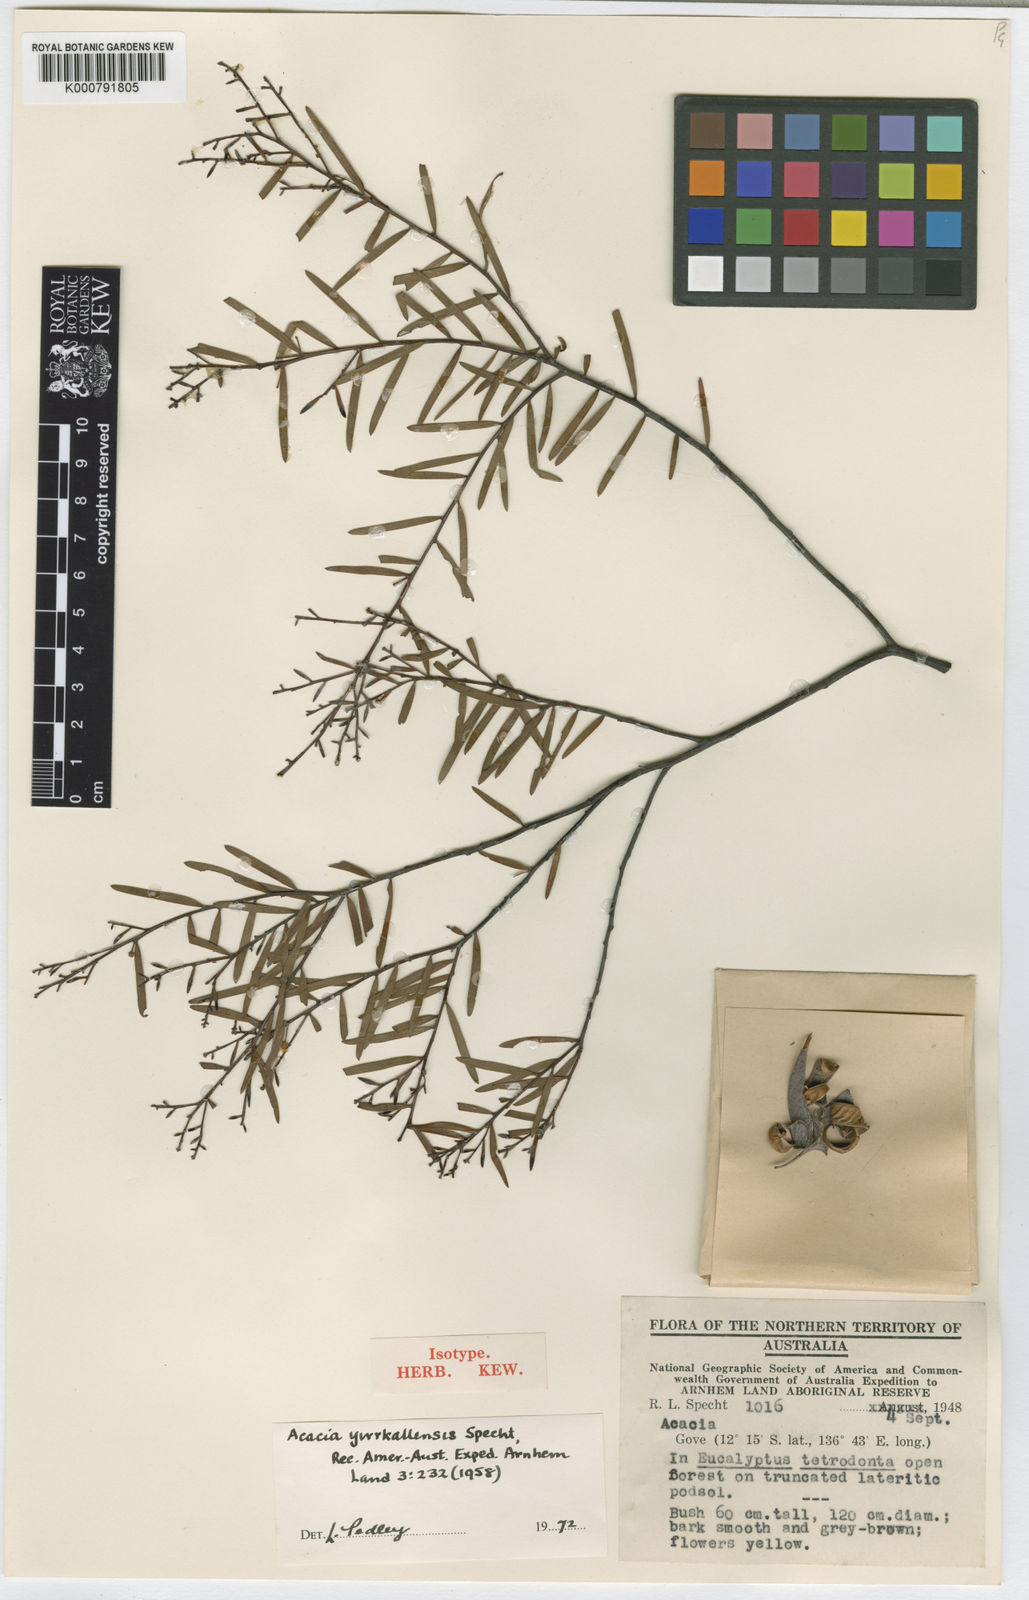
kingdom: Plantae
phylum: Tracheophyta
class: Magnoliopsida
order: Fabales
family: Fabaceae
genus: Acacia
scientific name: Acacia yirrkallensis
